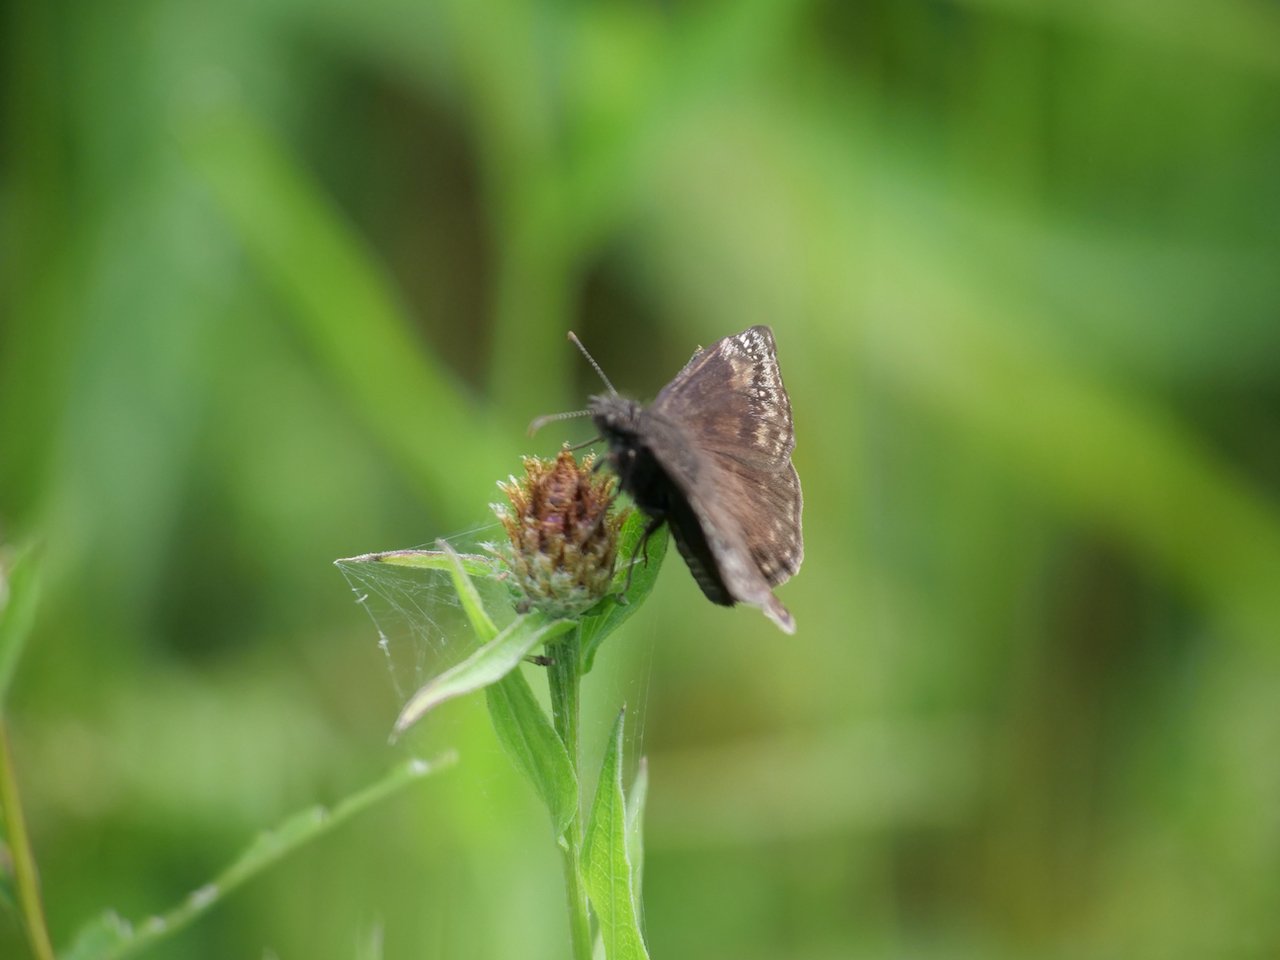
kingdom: Animalia
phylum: Arthropoda
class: Insecta
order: Lepidoptera
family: Hesperiidae
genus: Gesta
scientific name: Gesta
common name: Wild Indigo Duskywing
